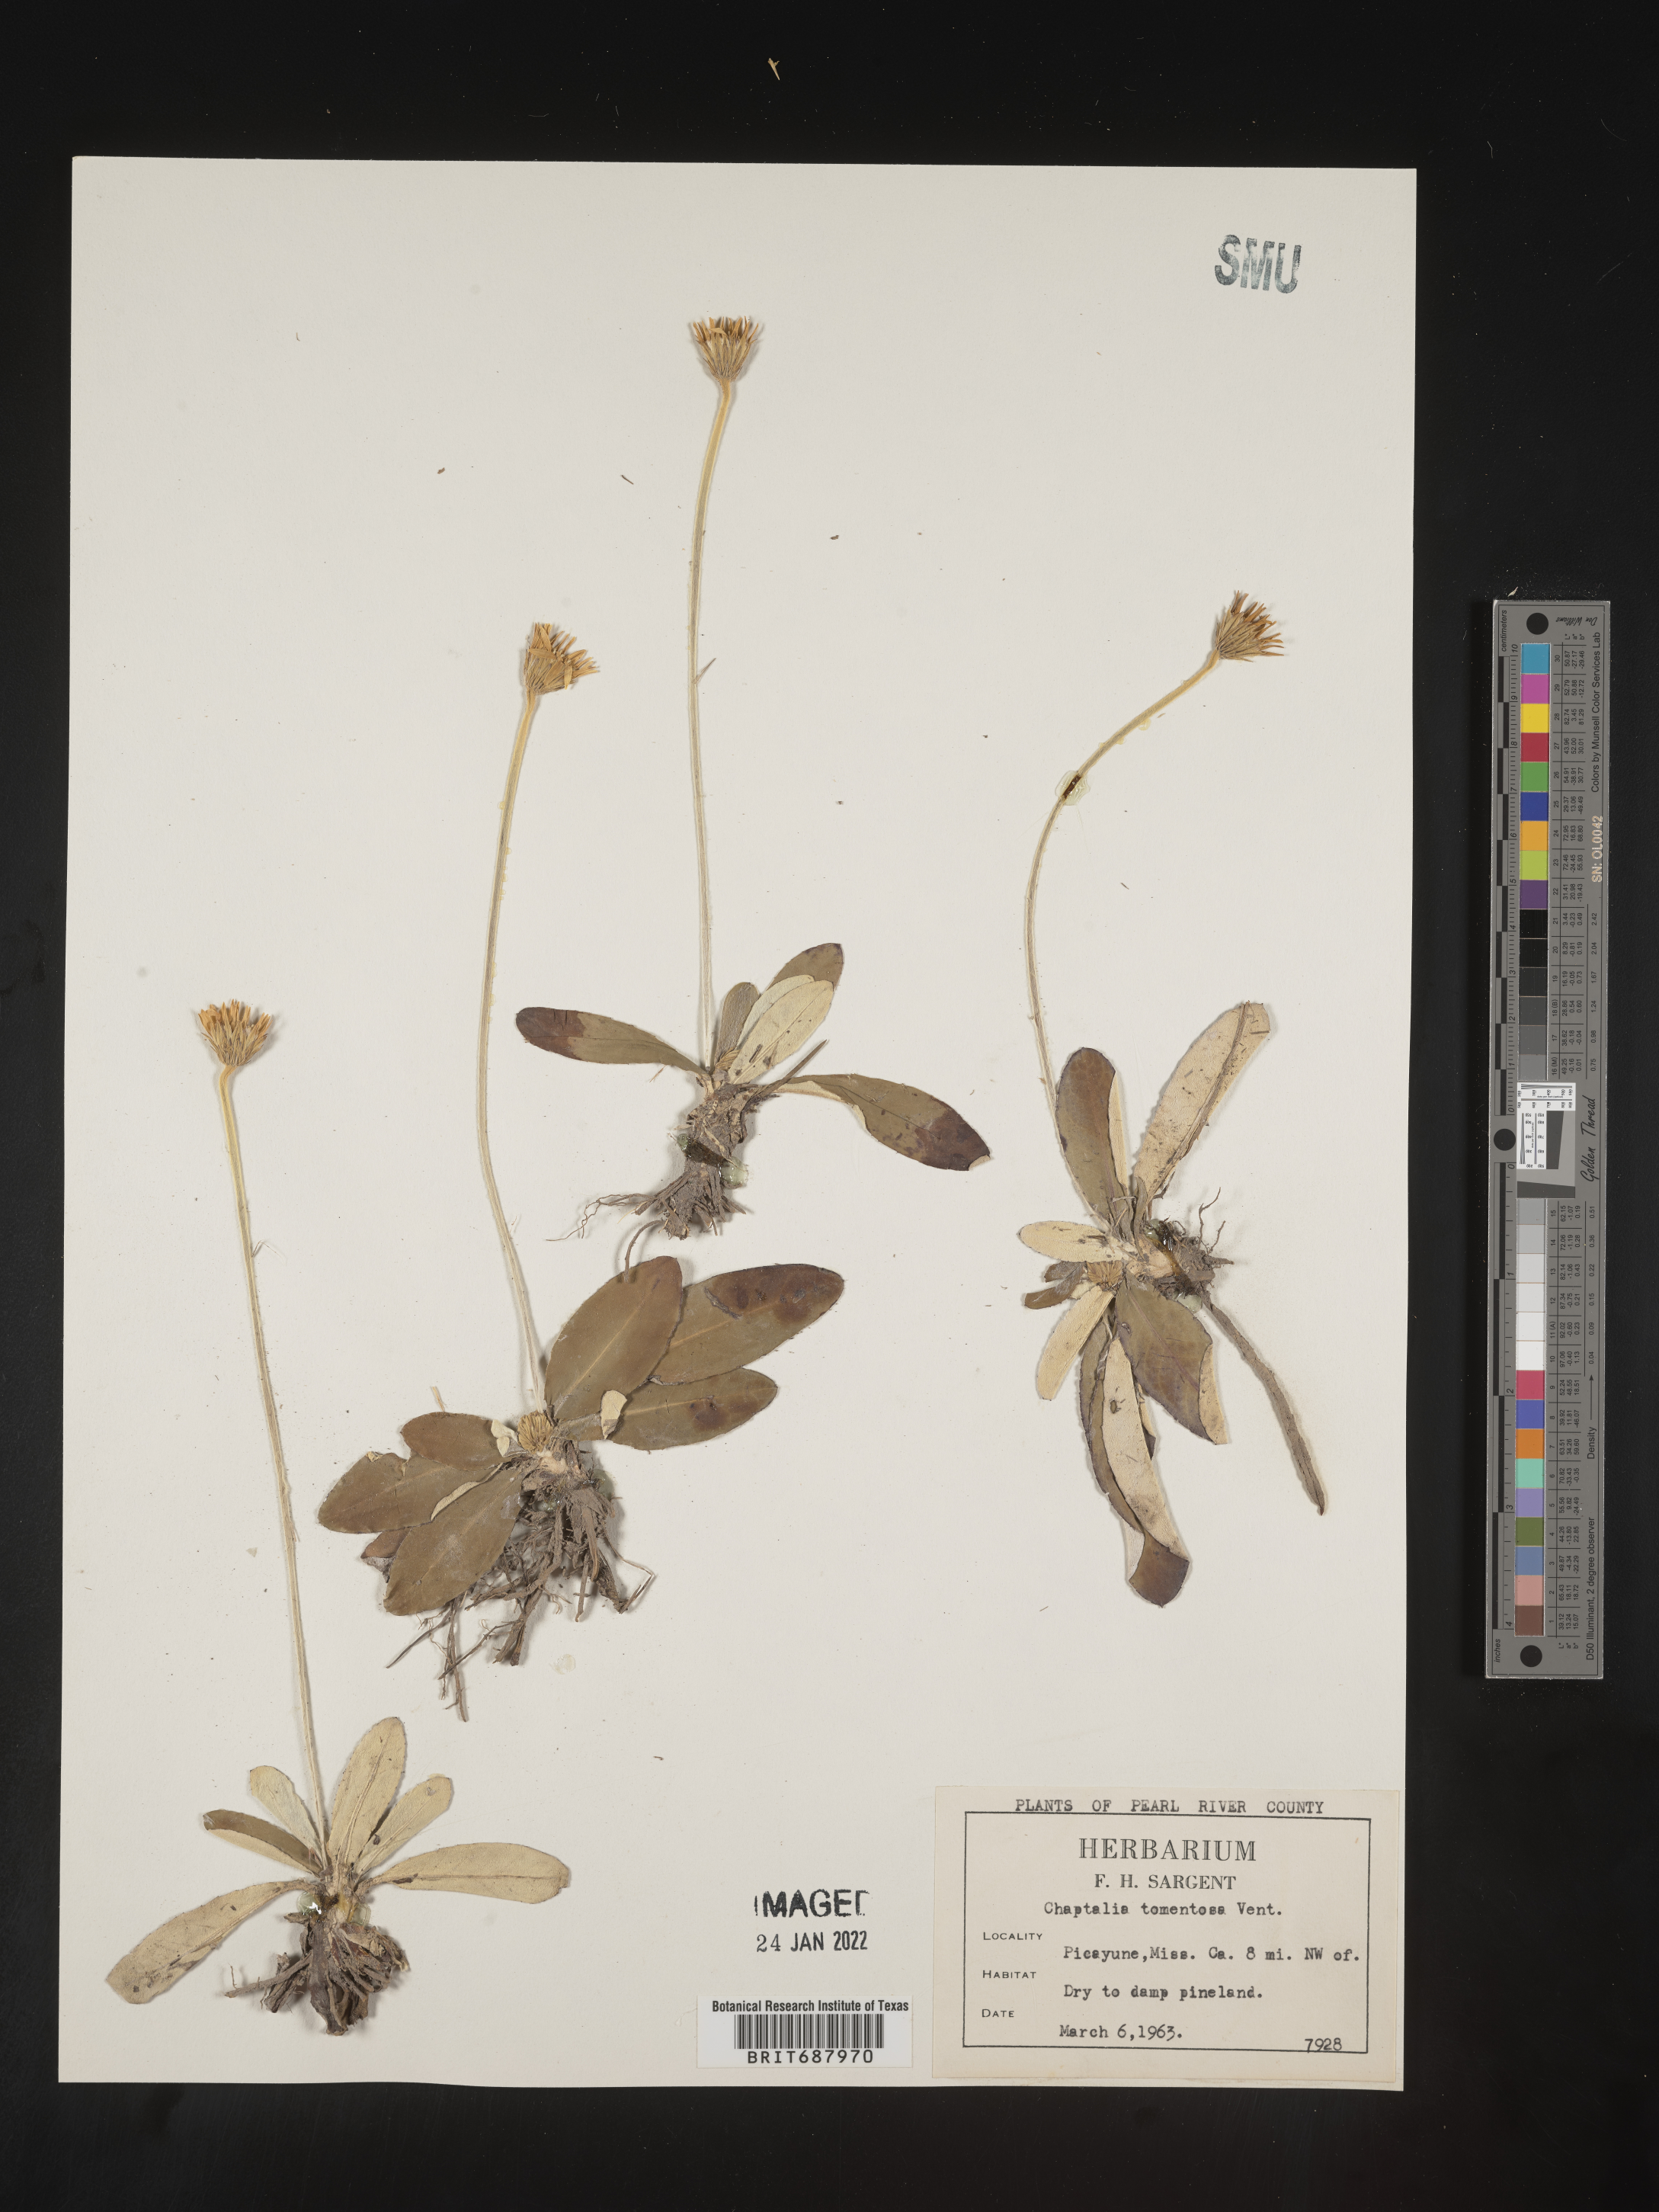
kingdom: Plantae
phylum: Tracheophyta
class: Magnoliopsida
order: Asterales
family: Asteraceae
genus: Chaptalia
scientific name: Chaptalia tomentosa
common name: Woolly sunbonnet
